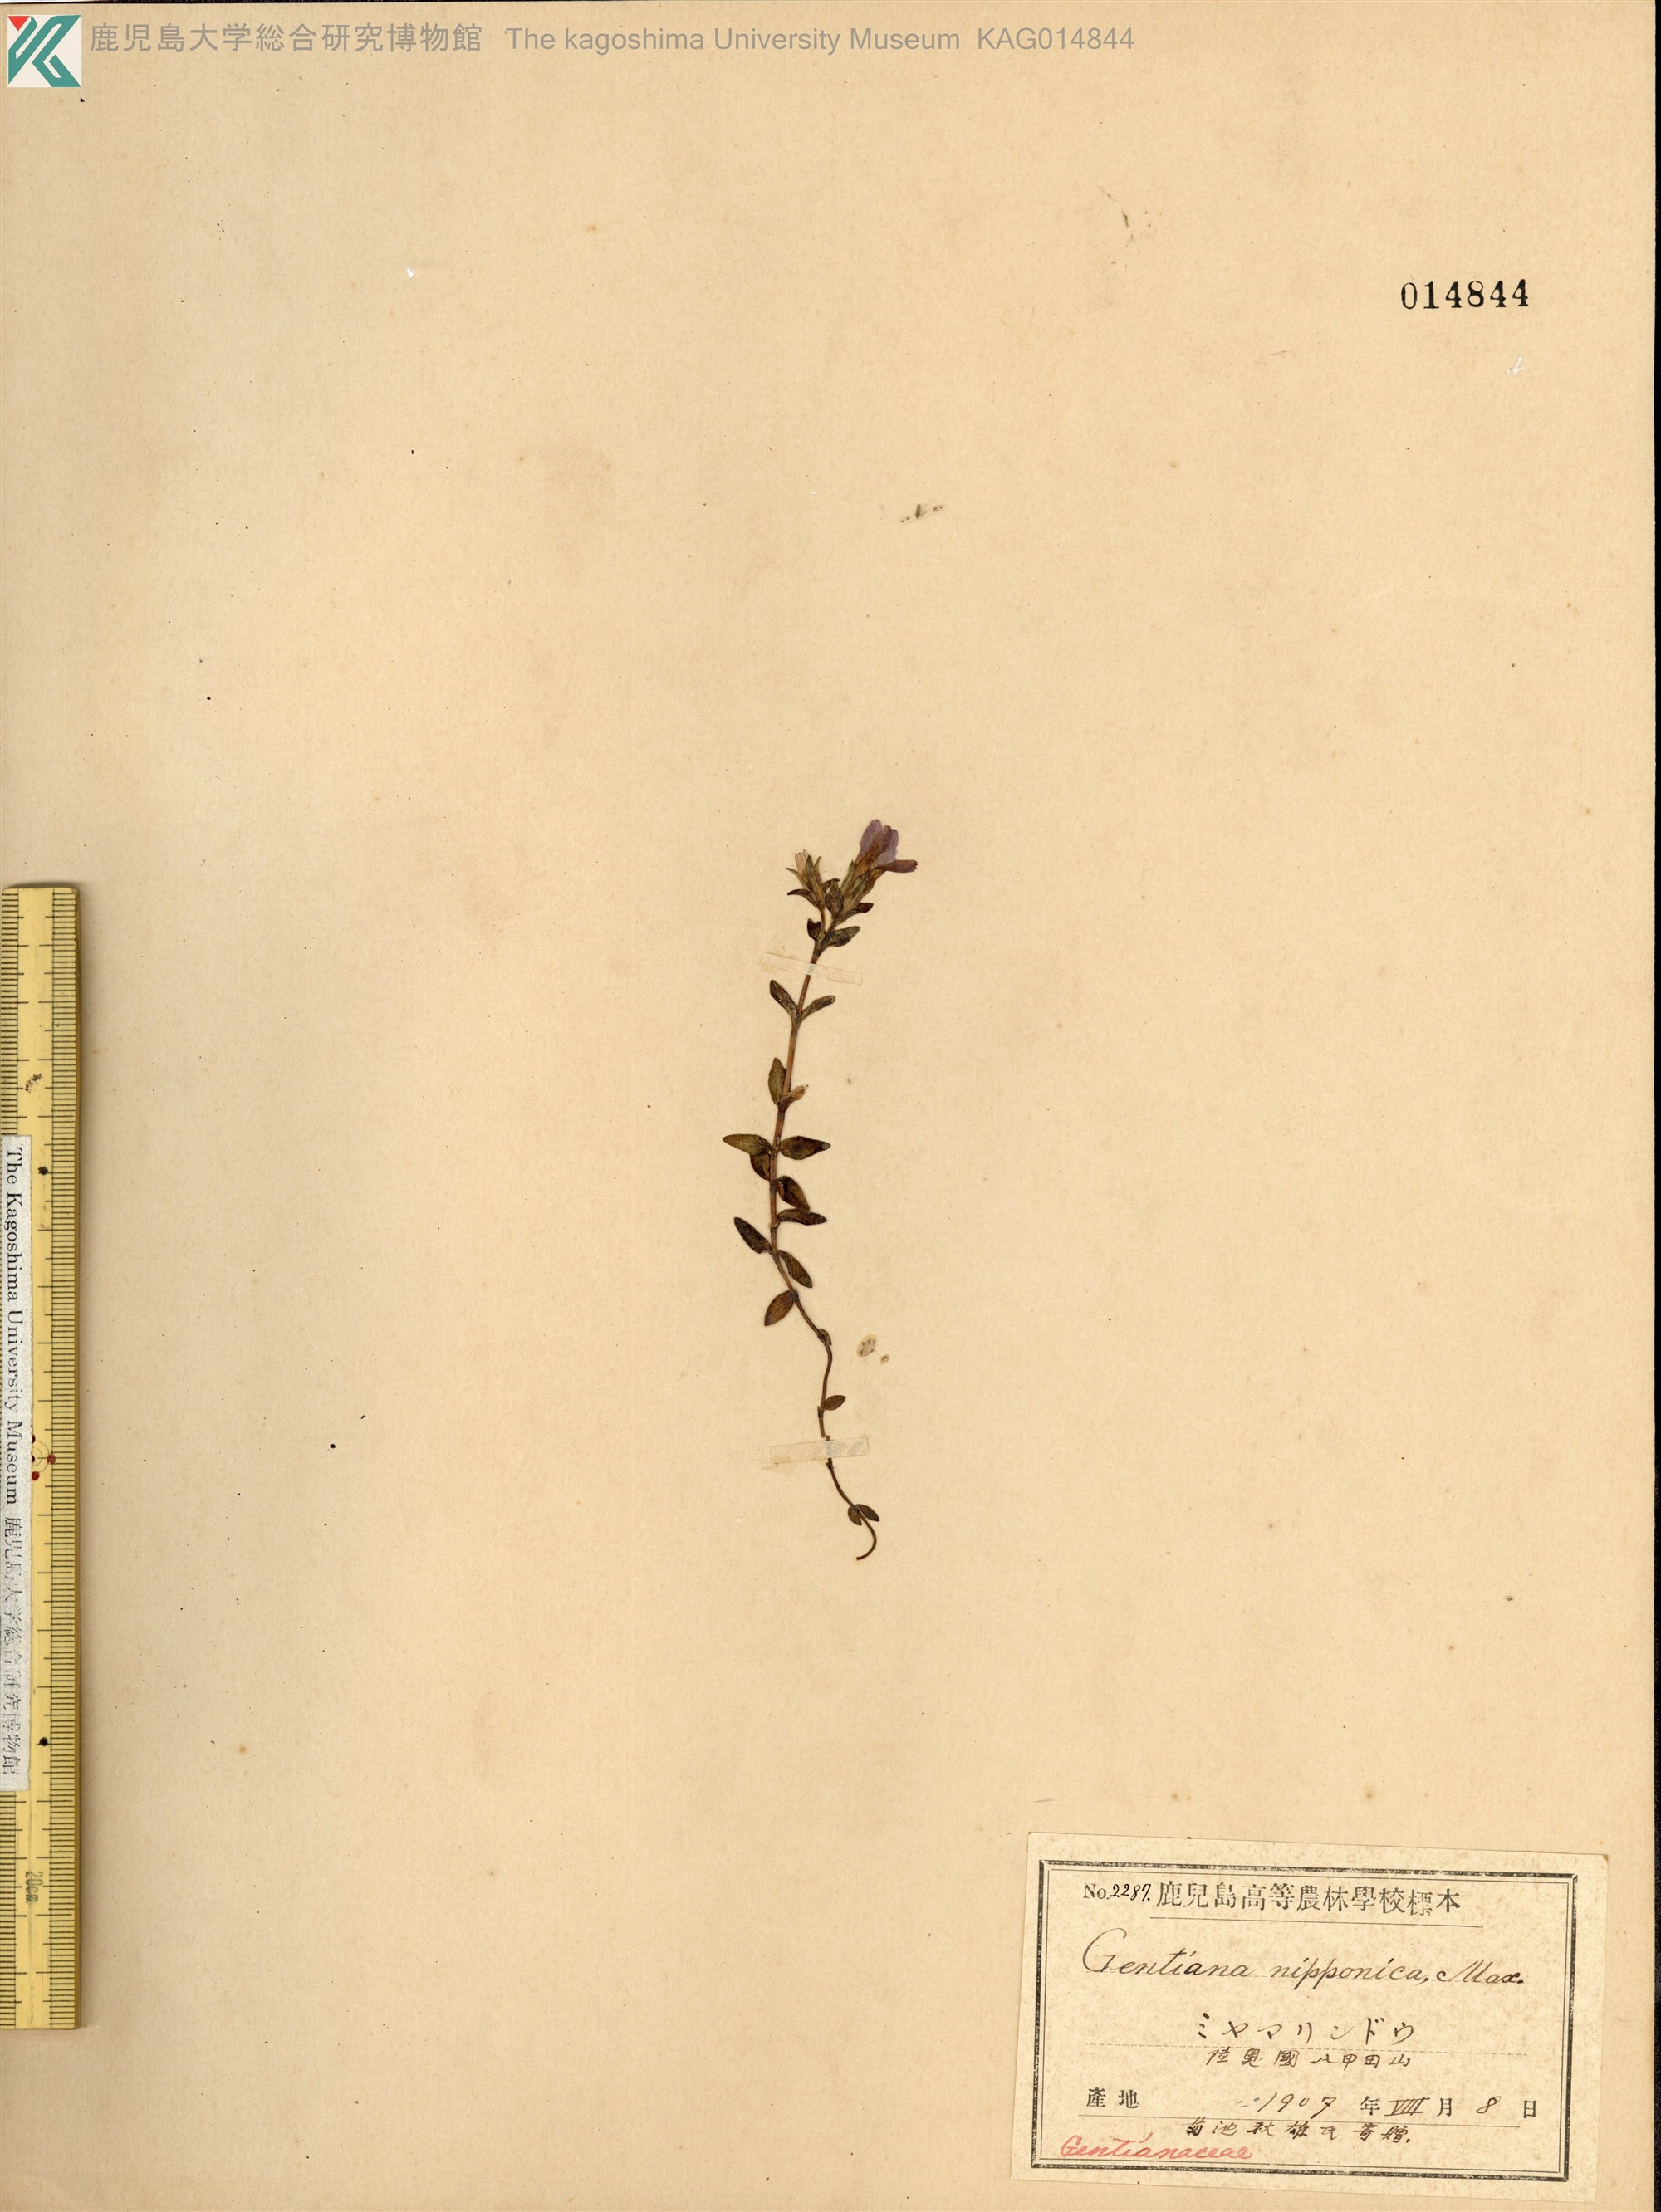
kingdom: Plantae
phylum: Tracheophyta
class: Magnoliopsida
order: Gentianales
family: Gentianaceae
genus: Gentiana
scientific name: Gentiana nipponica
